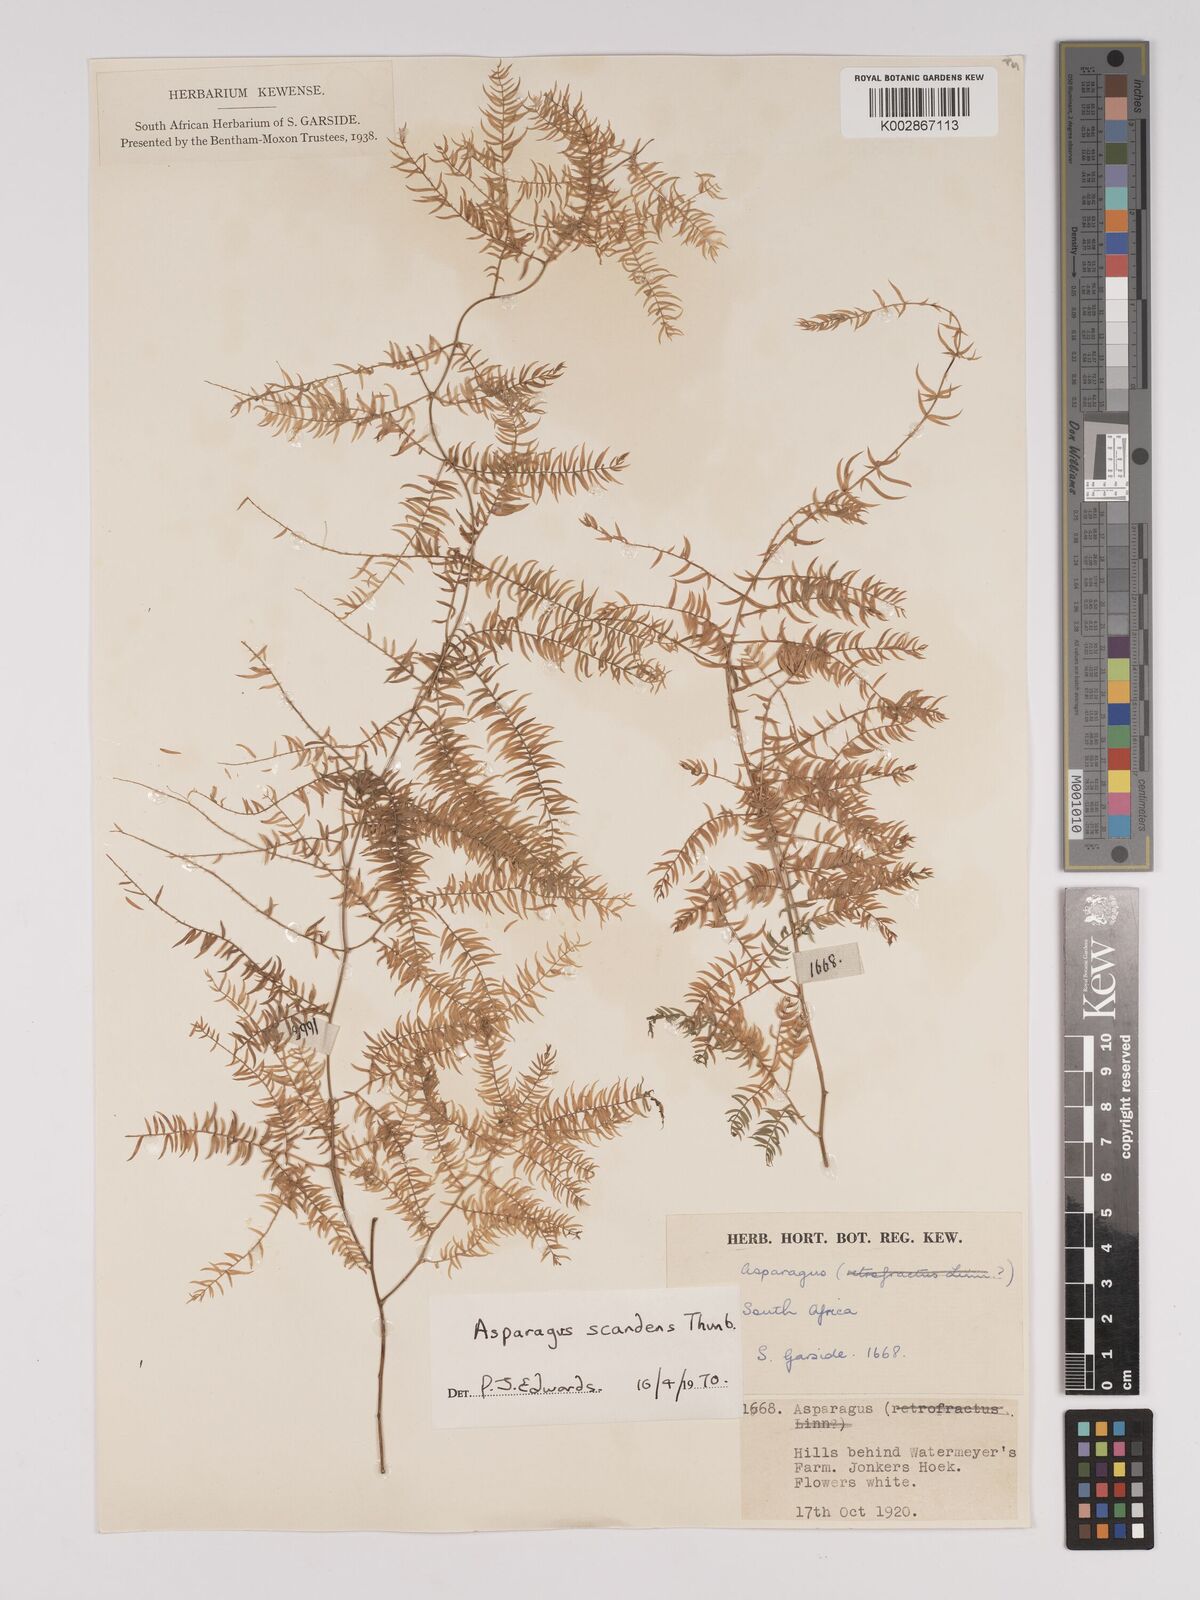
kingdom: Plantae
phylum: Tracheophyta
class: Liliopsida
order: Asparagales
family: Asparagaceae
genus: Asparagus
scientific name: Asparagus scandens
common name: Asparagus-fern
